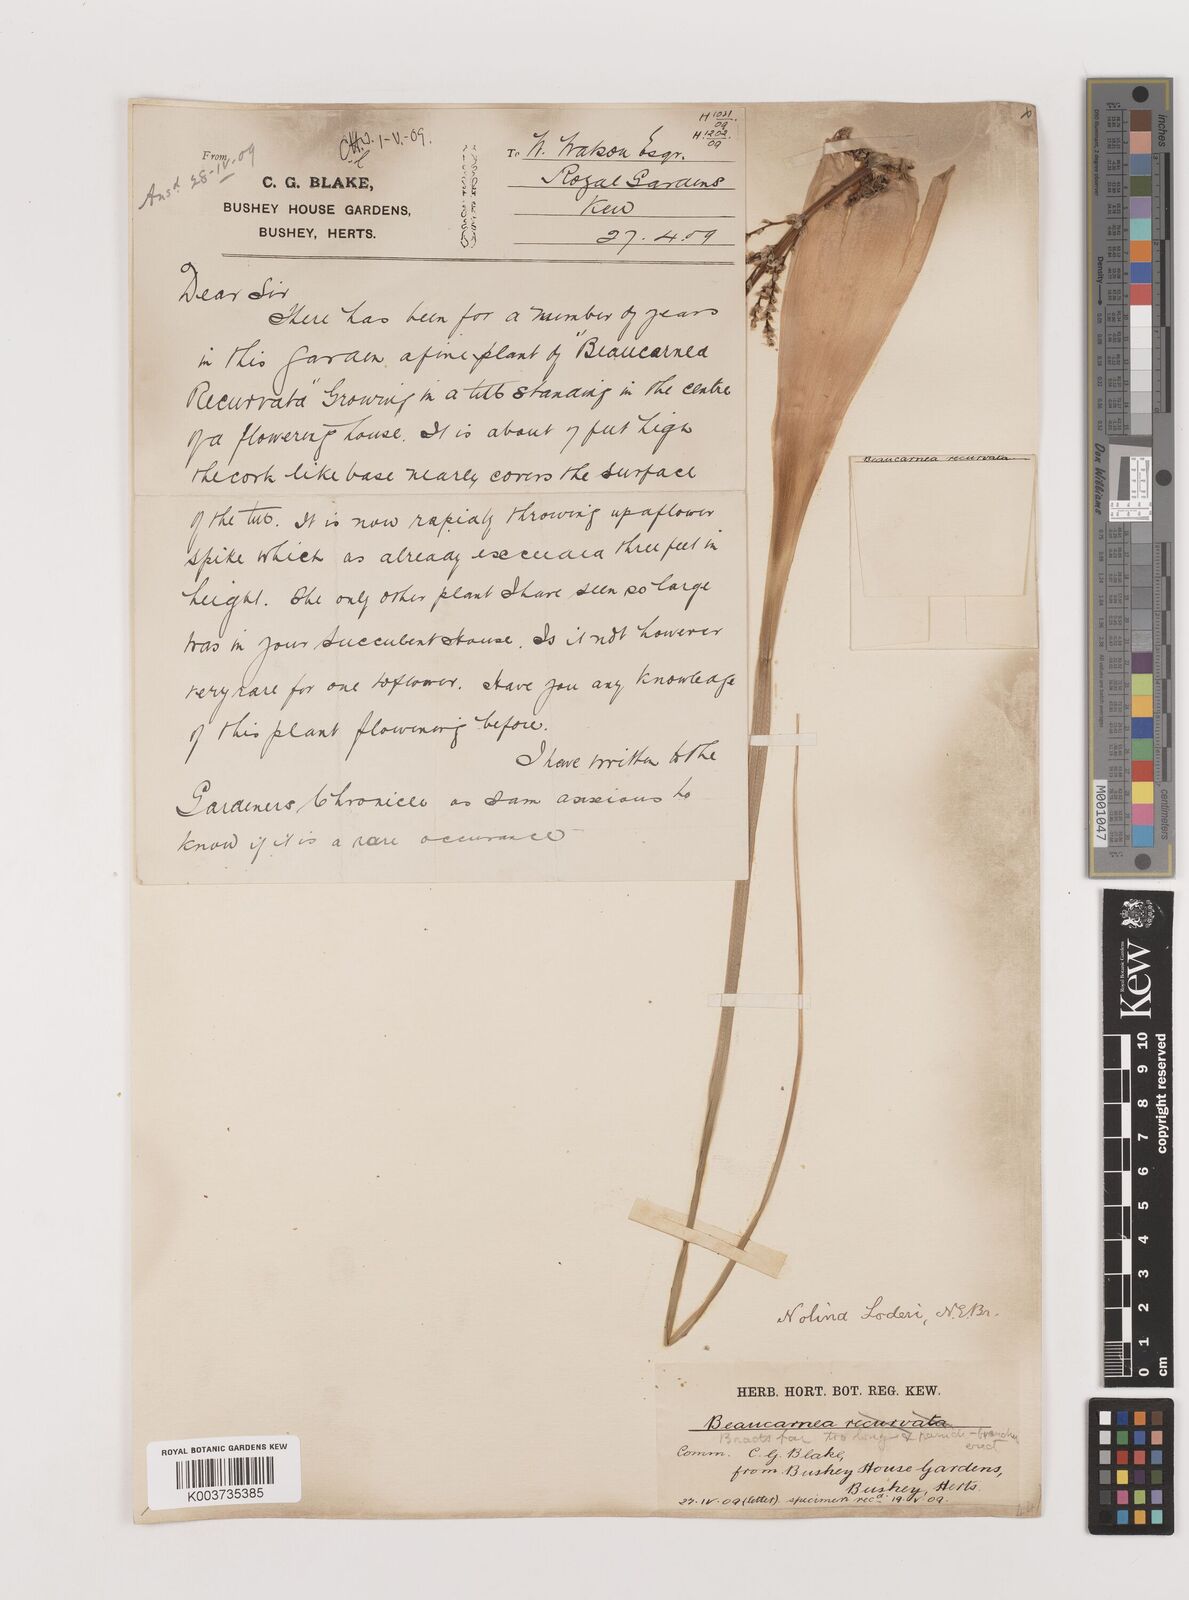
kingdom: Plantae
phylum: Tracheophyta
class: Liliopsida
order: Asparagales
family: Asparagaceae
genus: Nolina
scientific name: Nolina loderi
